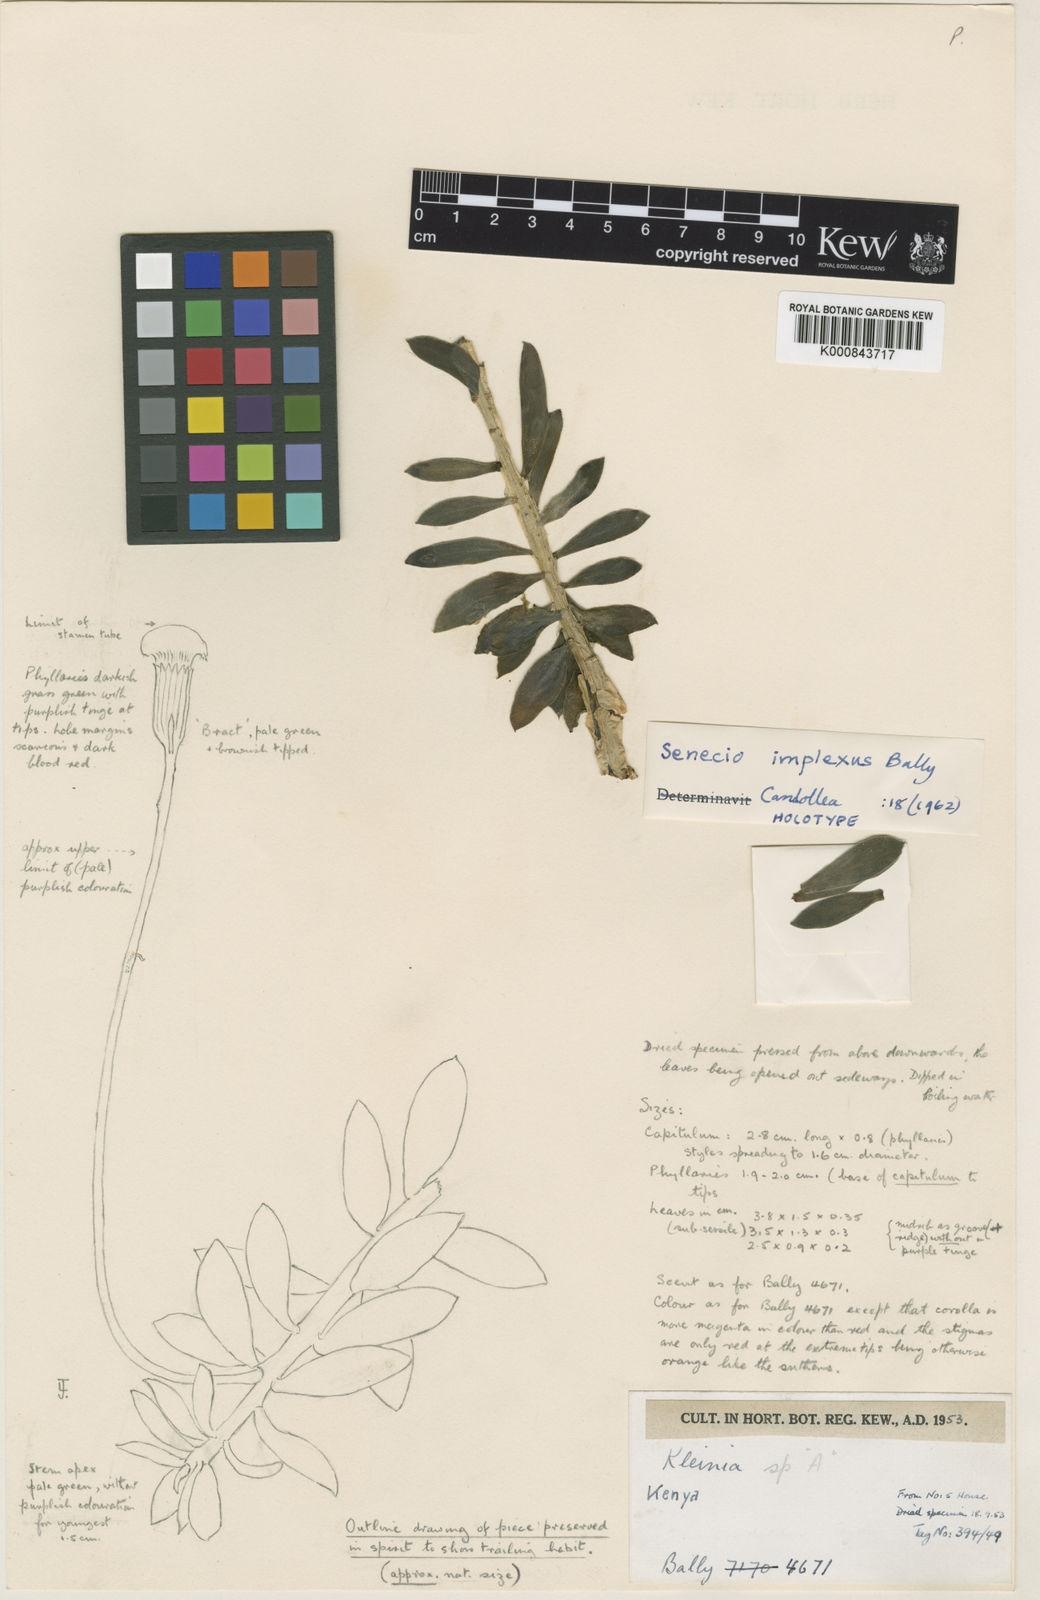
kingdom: Plantae
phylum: Tracheophyta
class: Magnoliopsida
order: Asterales
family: Asteraceae
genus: Kleinia
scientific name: Kleinia implexa
